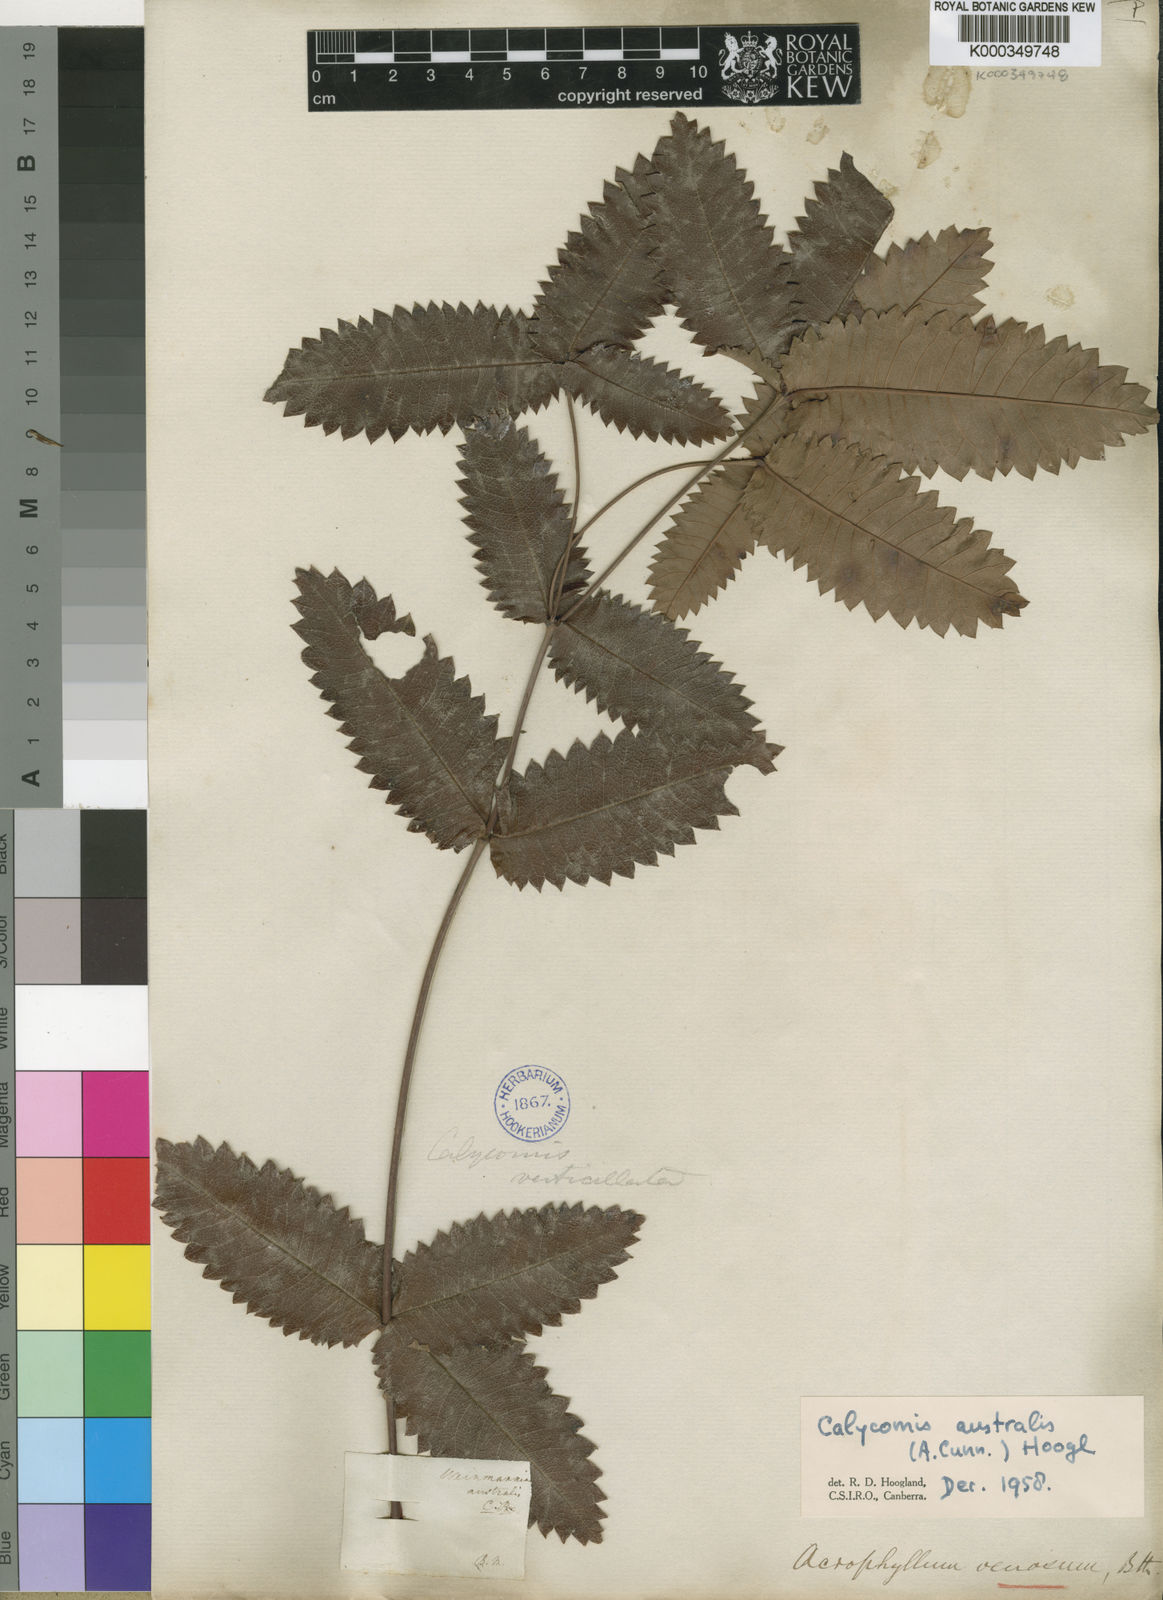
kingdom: Plantae
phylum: Tracheophyta
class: Magnoliopsida
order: Oxalidales
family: Cunoniaceae
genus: Acrophyllum
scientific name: Acrophyllum australe
